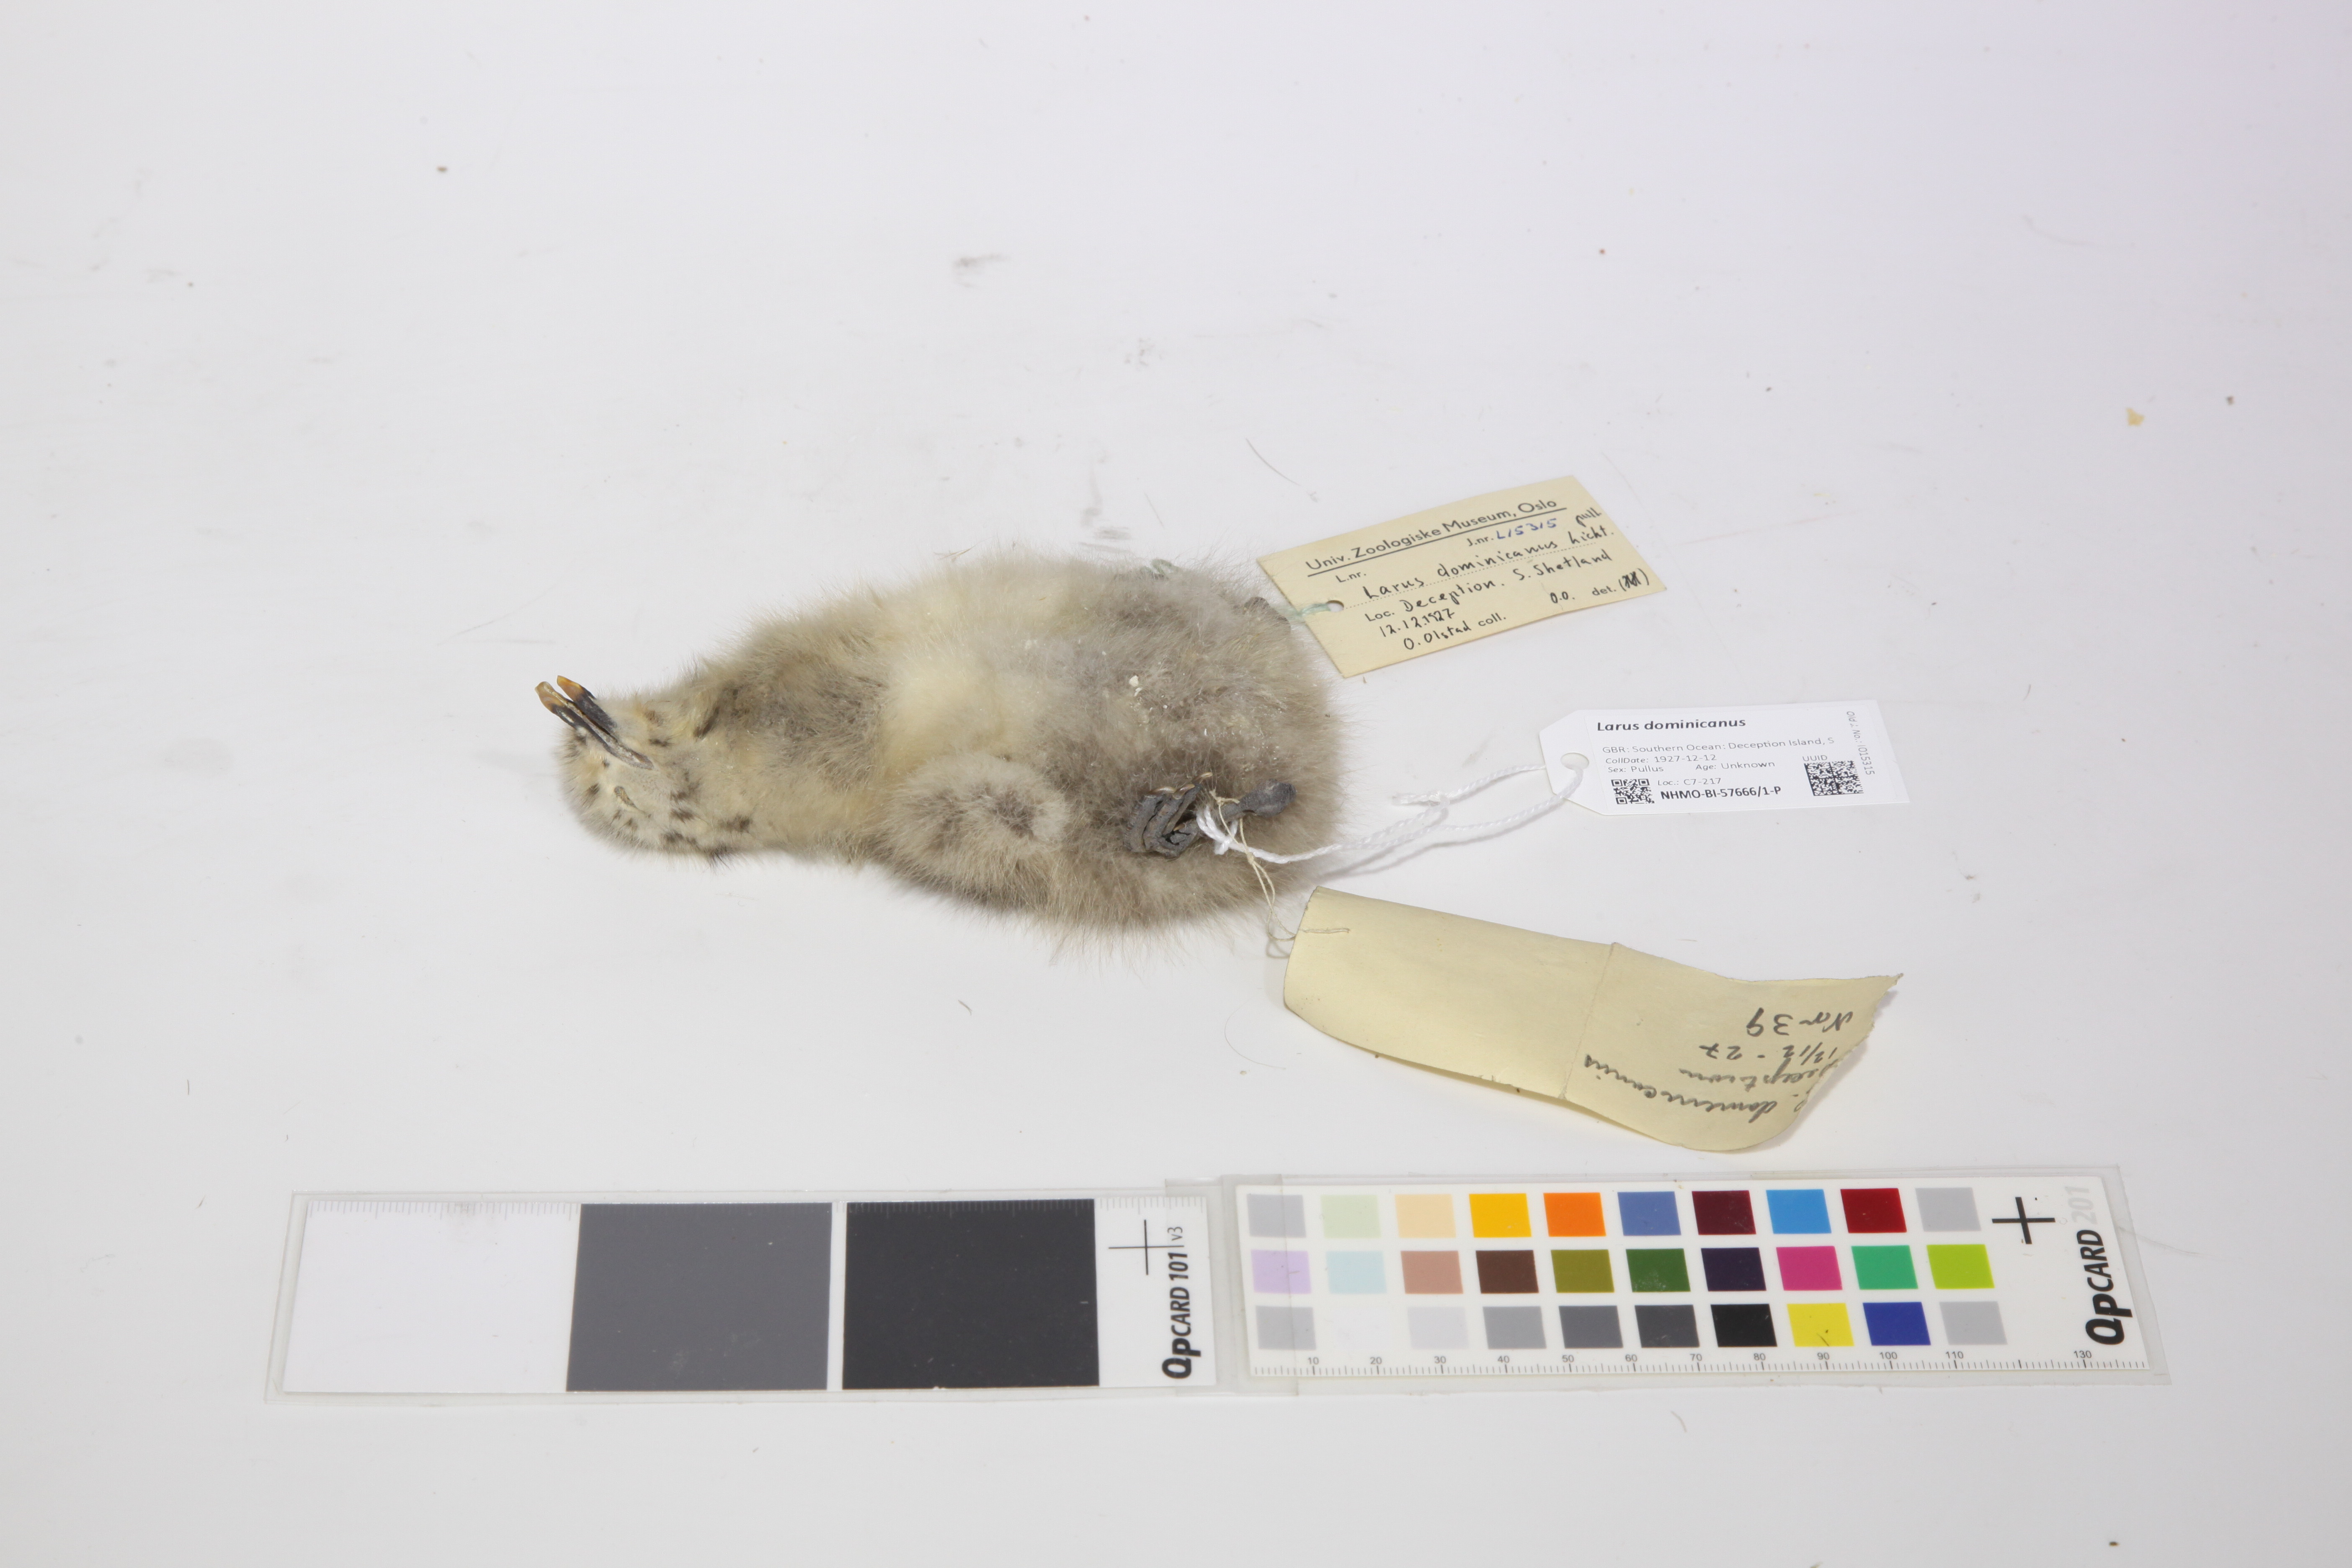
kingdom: Animalia
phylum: Chordata
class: Aves
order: Charadriiformes
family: Laridae
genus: Larus
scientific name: Larus dominicanus
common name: Kelp gull
